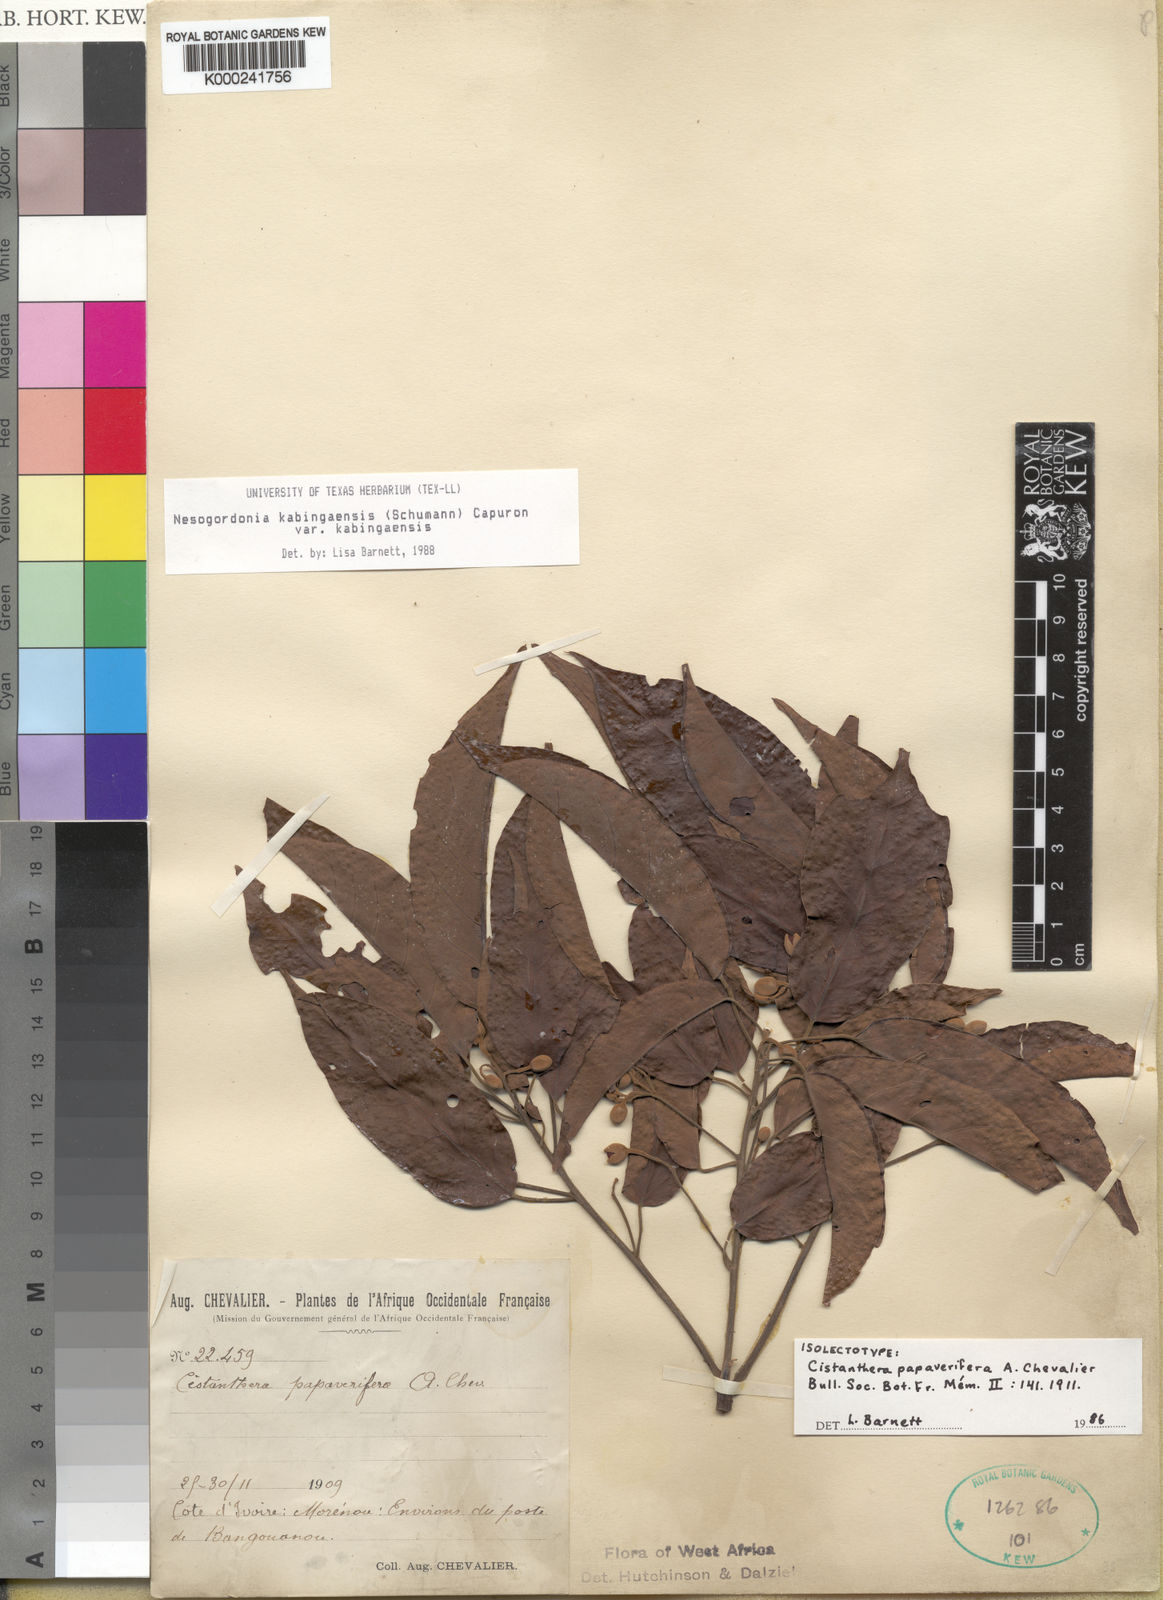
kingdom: Plantae
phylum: Tracheophyta
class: Magnoliopsida
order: Malvales
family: Malvaceae
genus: Nesogordonia
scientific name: Nesogordonia
